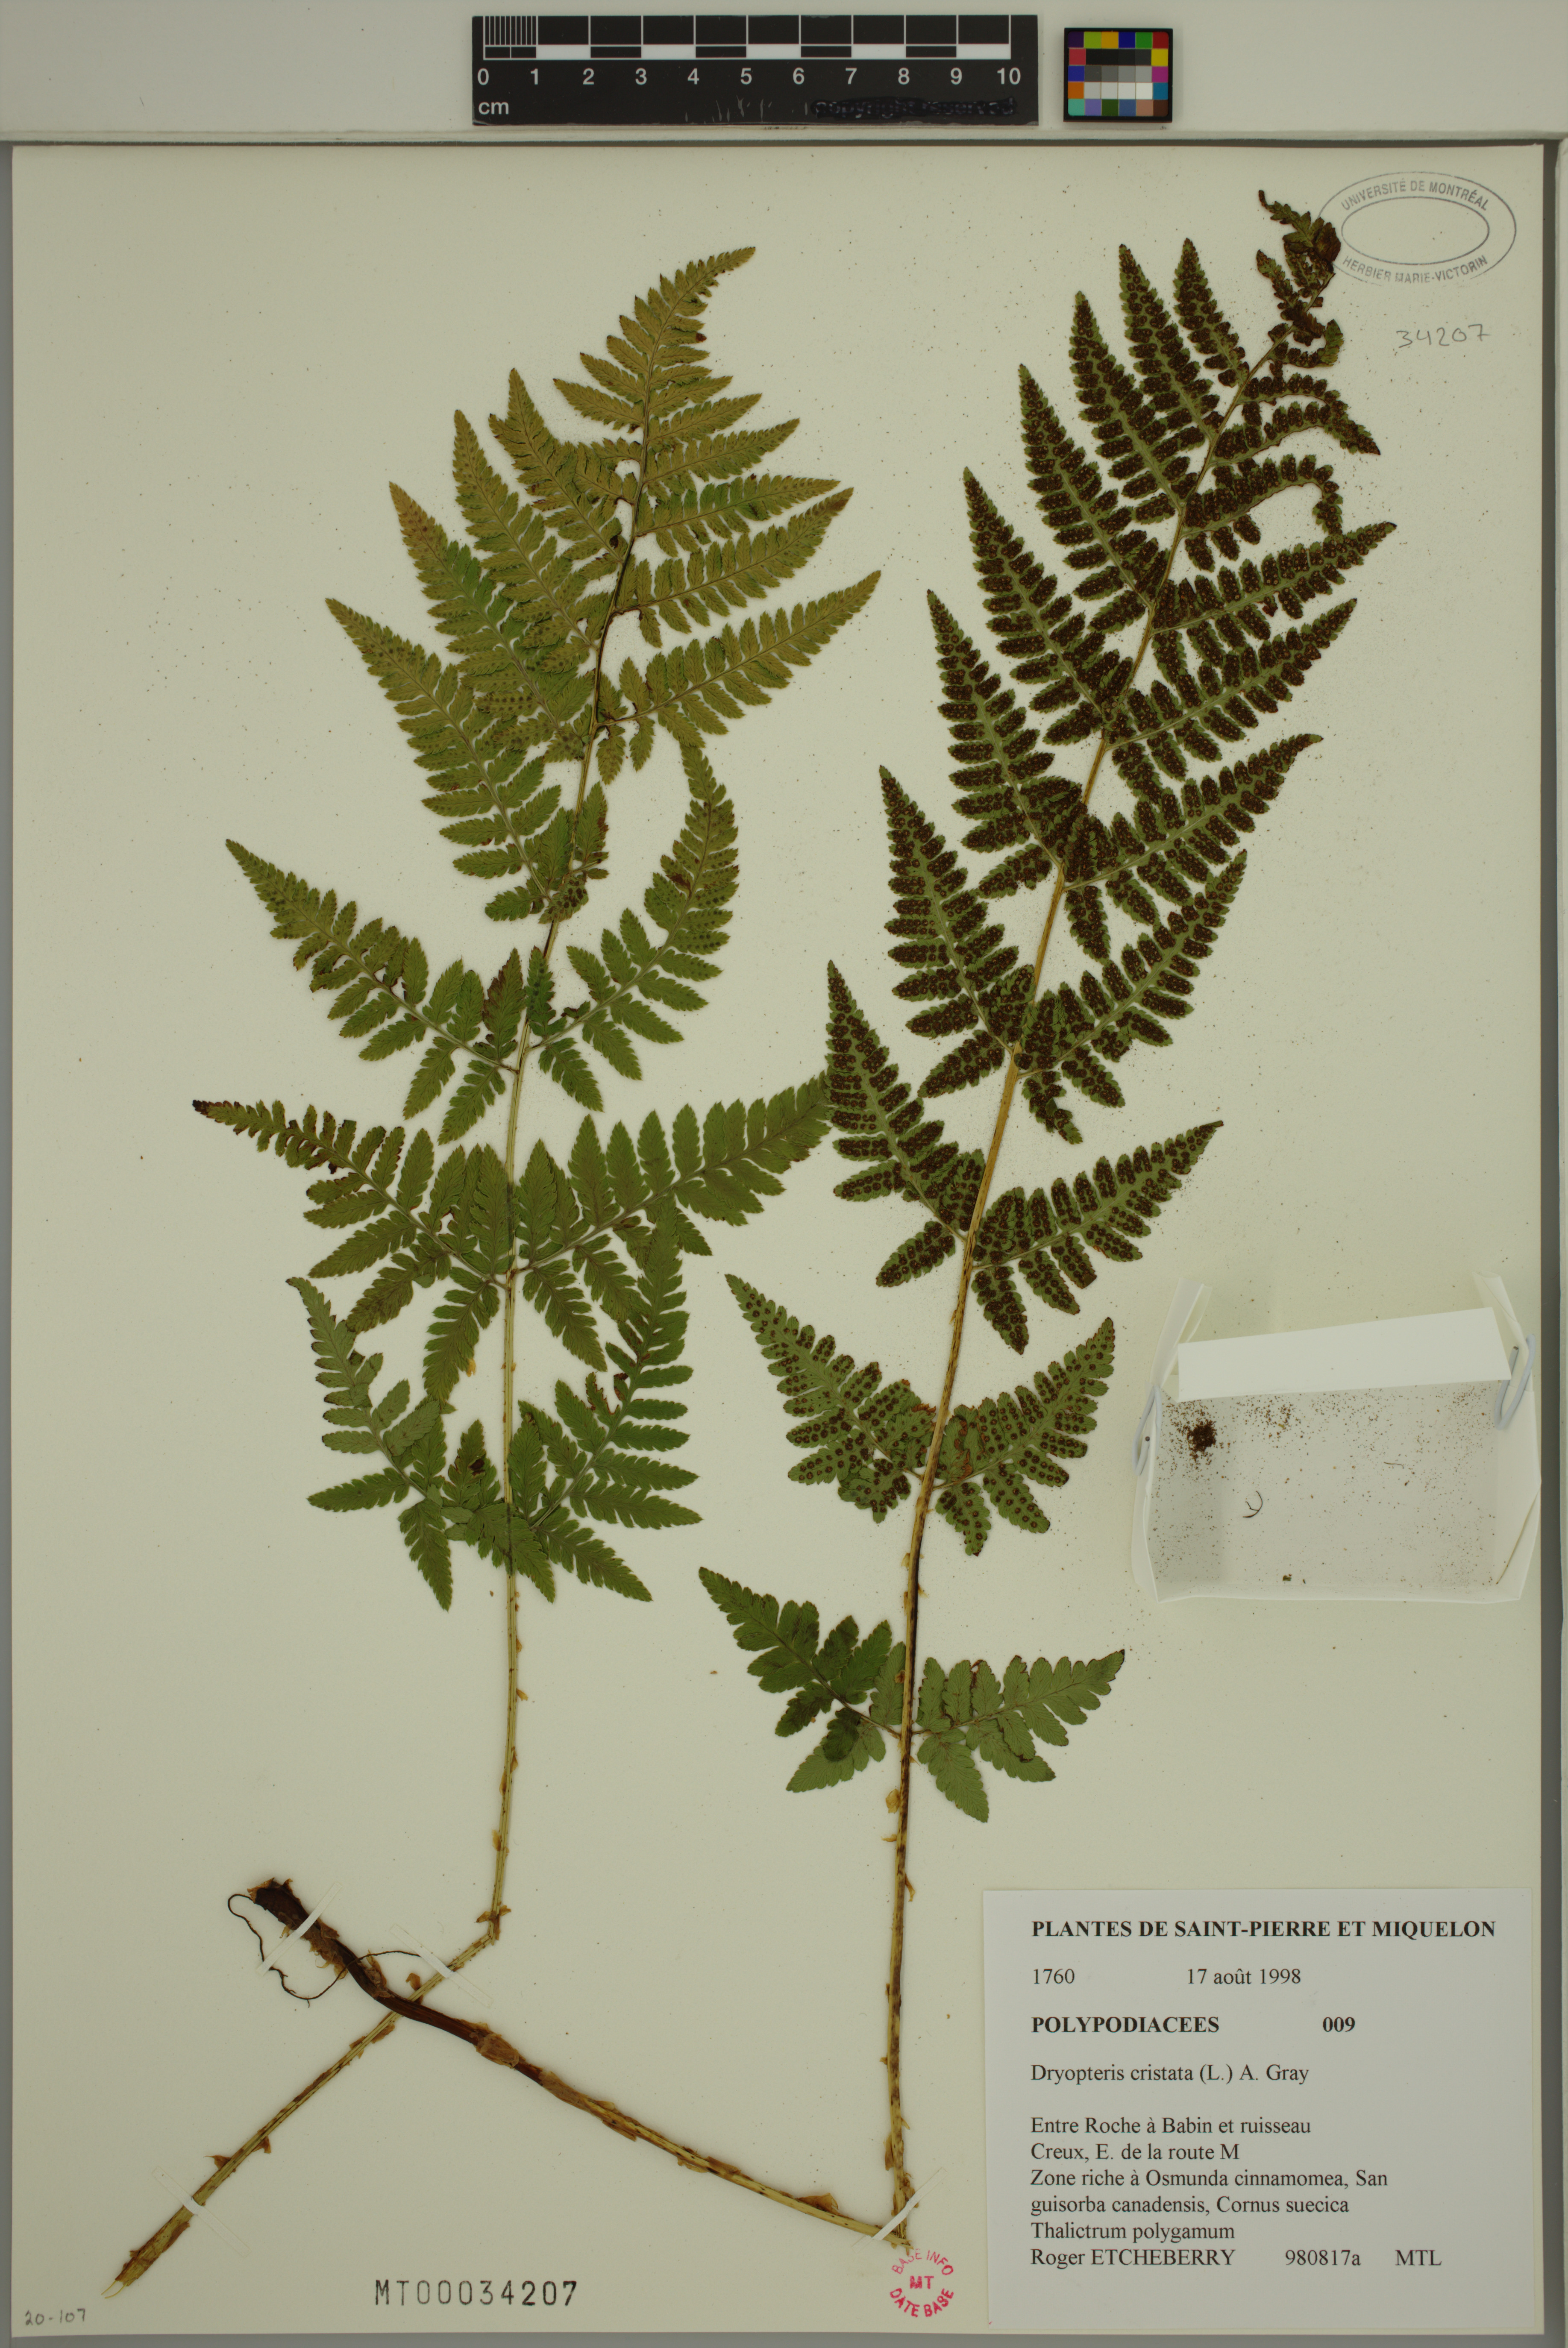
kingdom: Plantae
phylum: Tracheophyta
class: Polypodiopsida
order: Polypodiales
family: Dryopteridaceae
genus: Dryopteris
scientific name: Dryopteris cristata
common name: Crested wood fern
